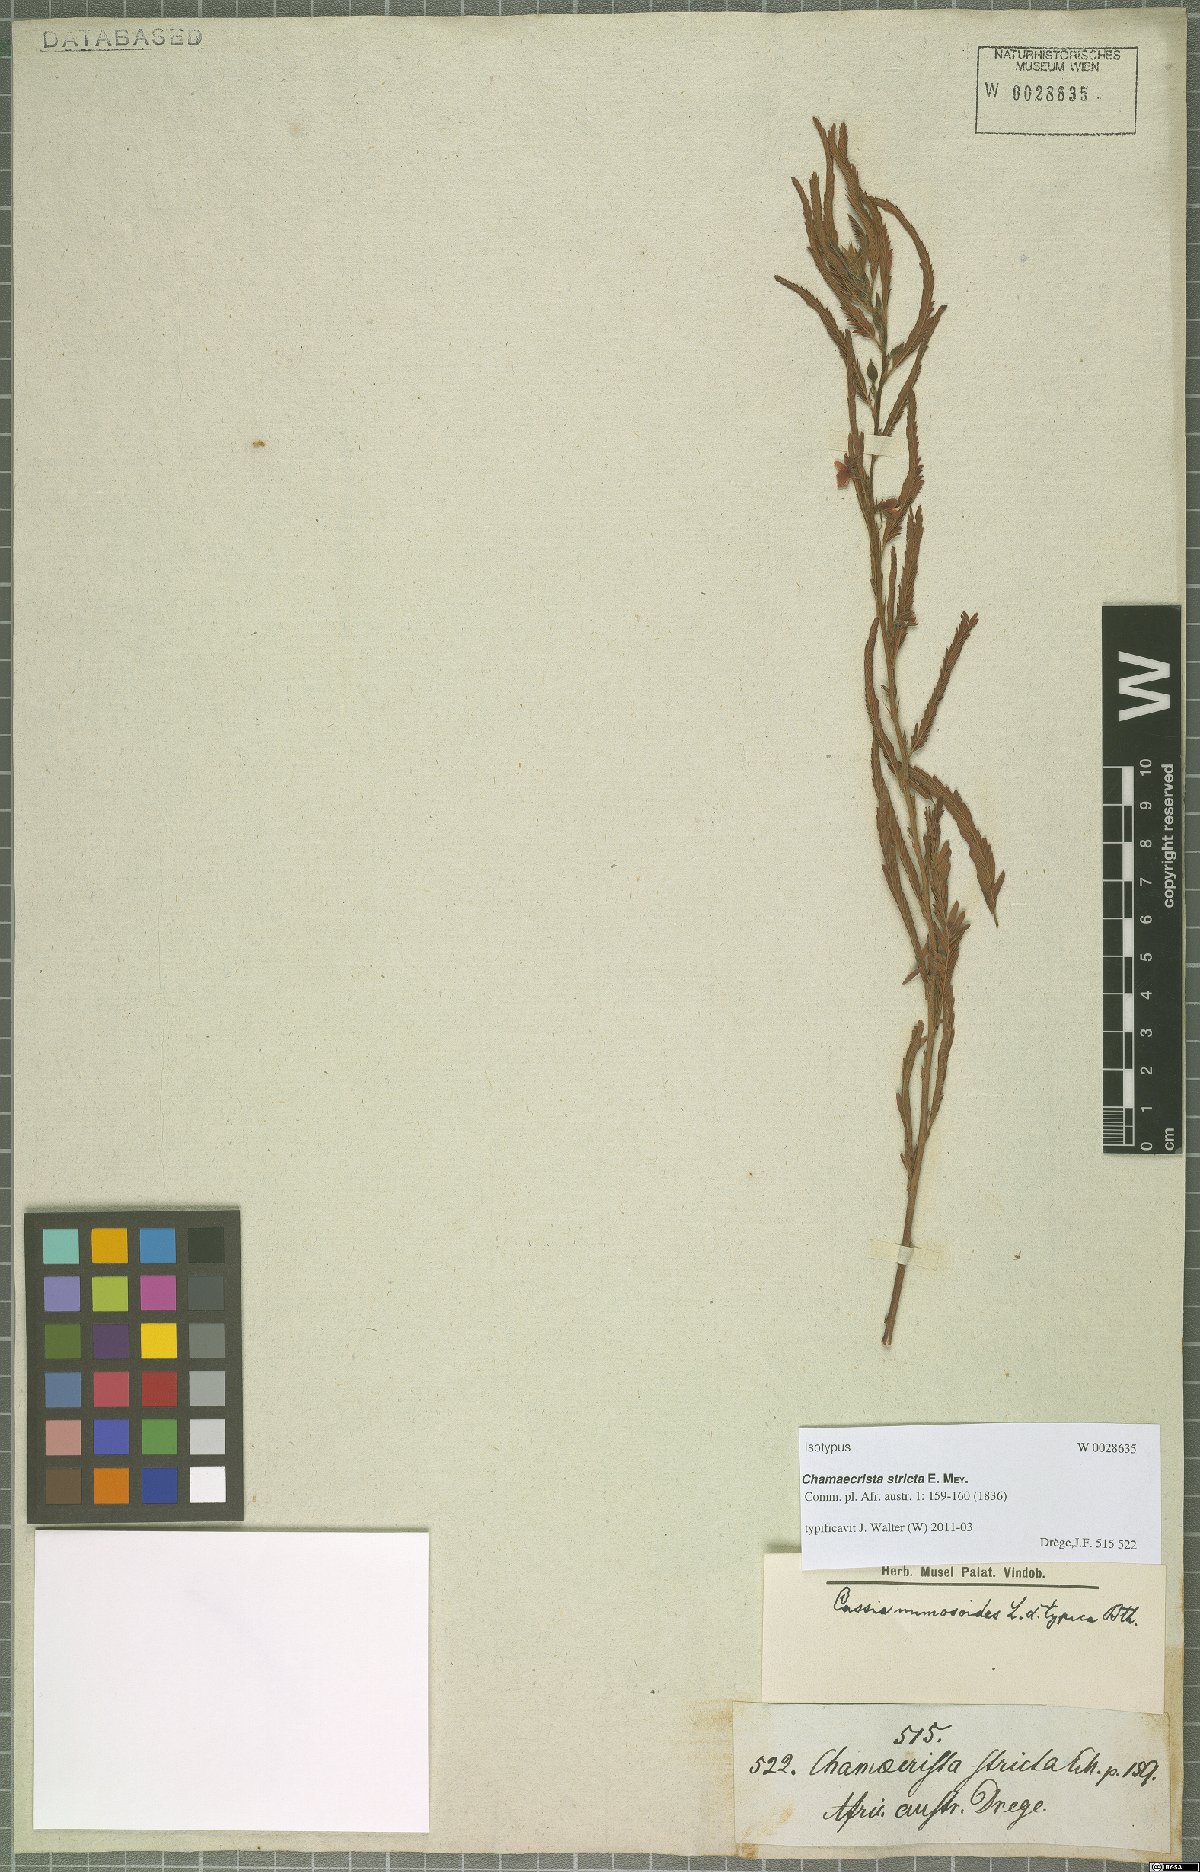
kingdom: Plantae
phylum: Tracheophyta
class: Magnoliopsida
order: Fabales
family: Fabaceae
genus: Chamaecrista
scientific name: Chamaecrista stricta
